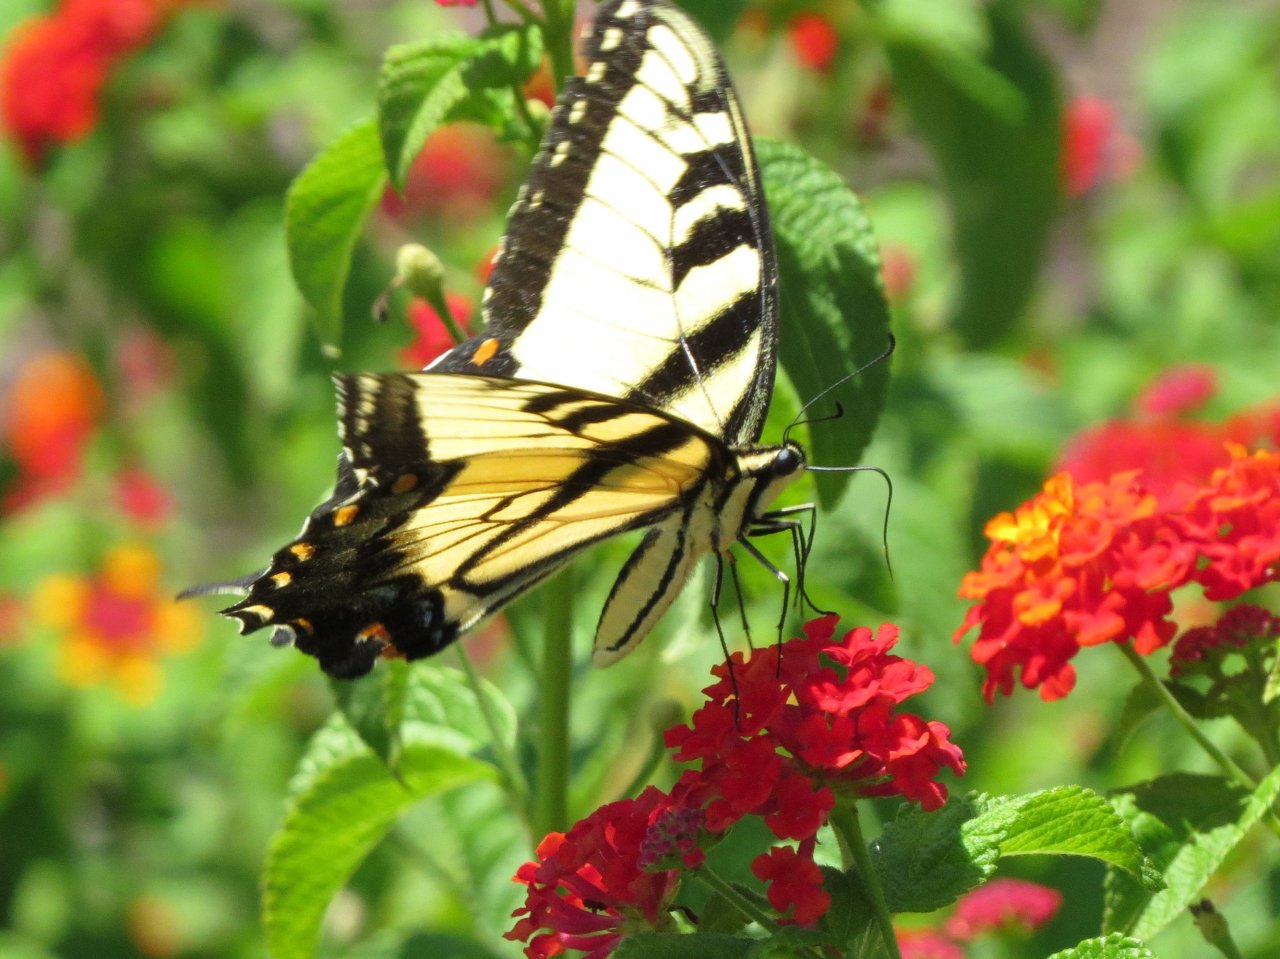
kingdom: Animalia
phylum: Arthropoda
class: Insecta
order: Lepidoptera
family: Papilionidae
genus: Pterourus
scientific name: Pterourus glaucus
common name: Eastern Tiger Swallowtail
